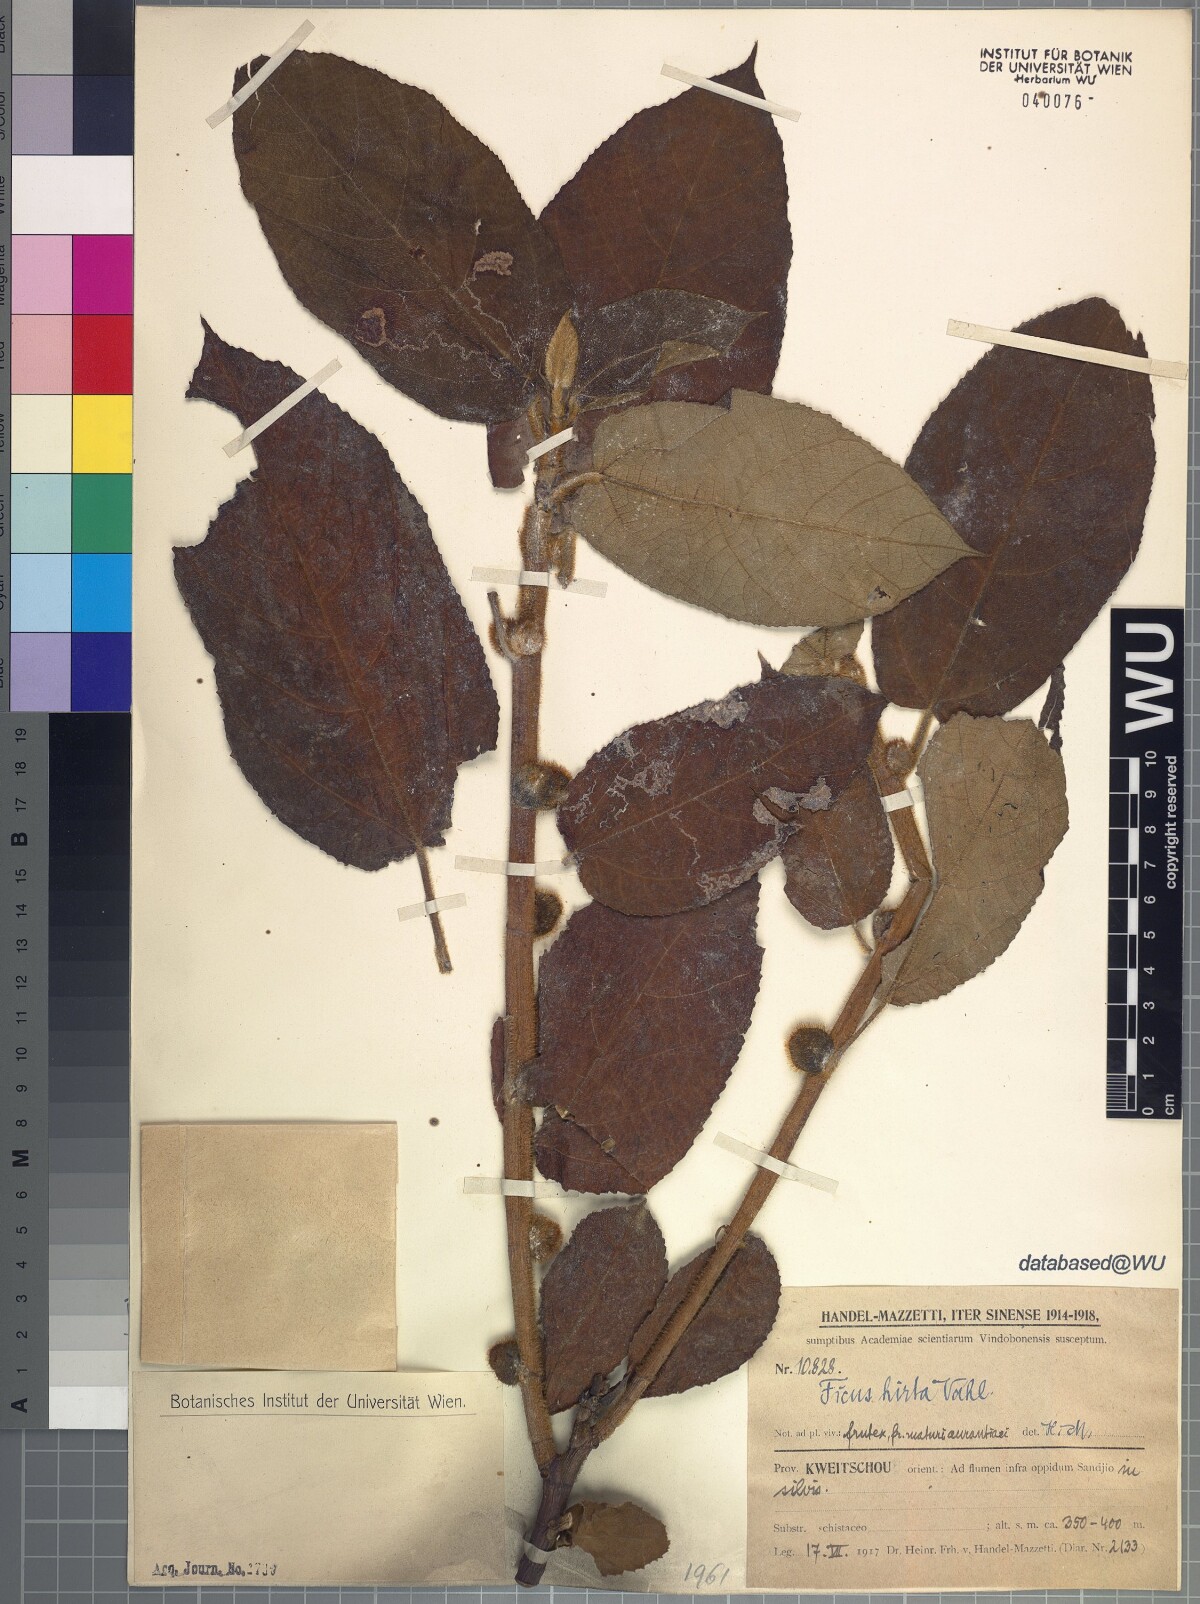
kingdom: Plantae
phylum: Tracheophyta
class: Magnoliopsida
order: Rosales
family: Moraceae
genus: Ficus
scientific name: Ficus simplicissima
